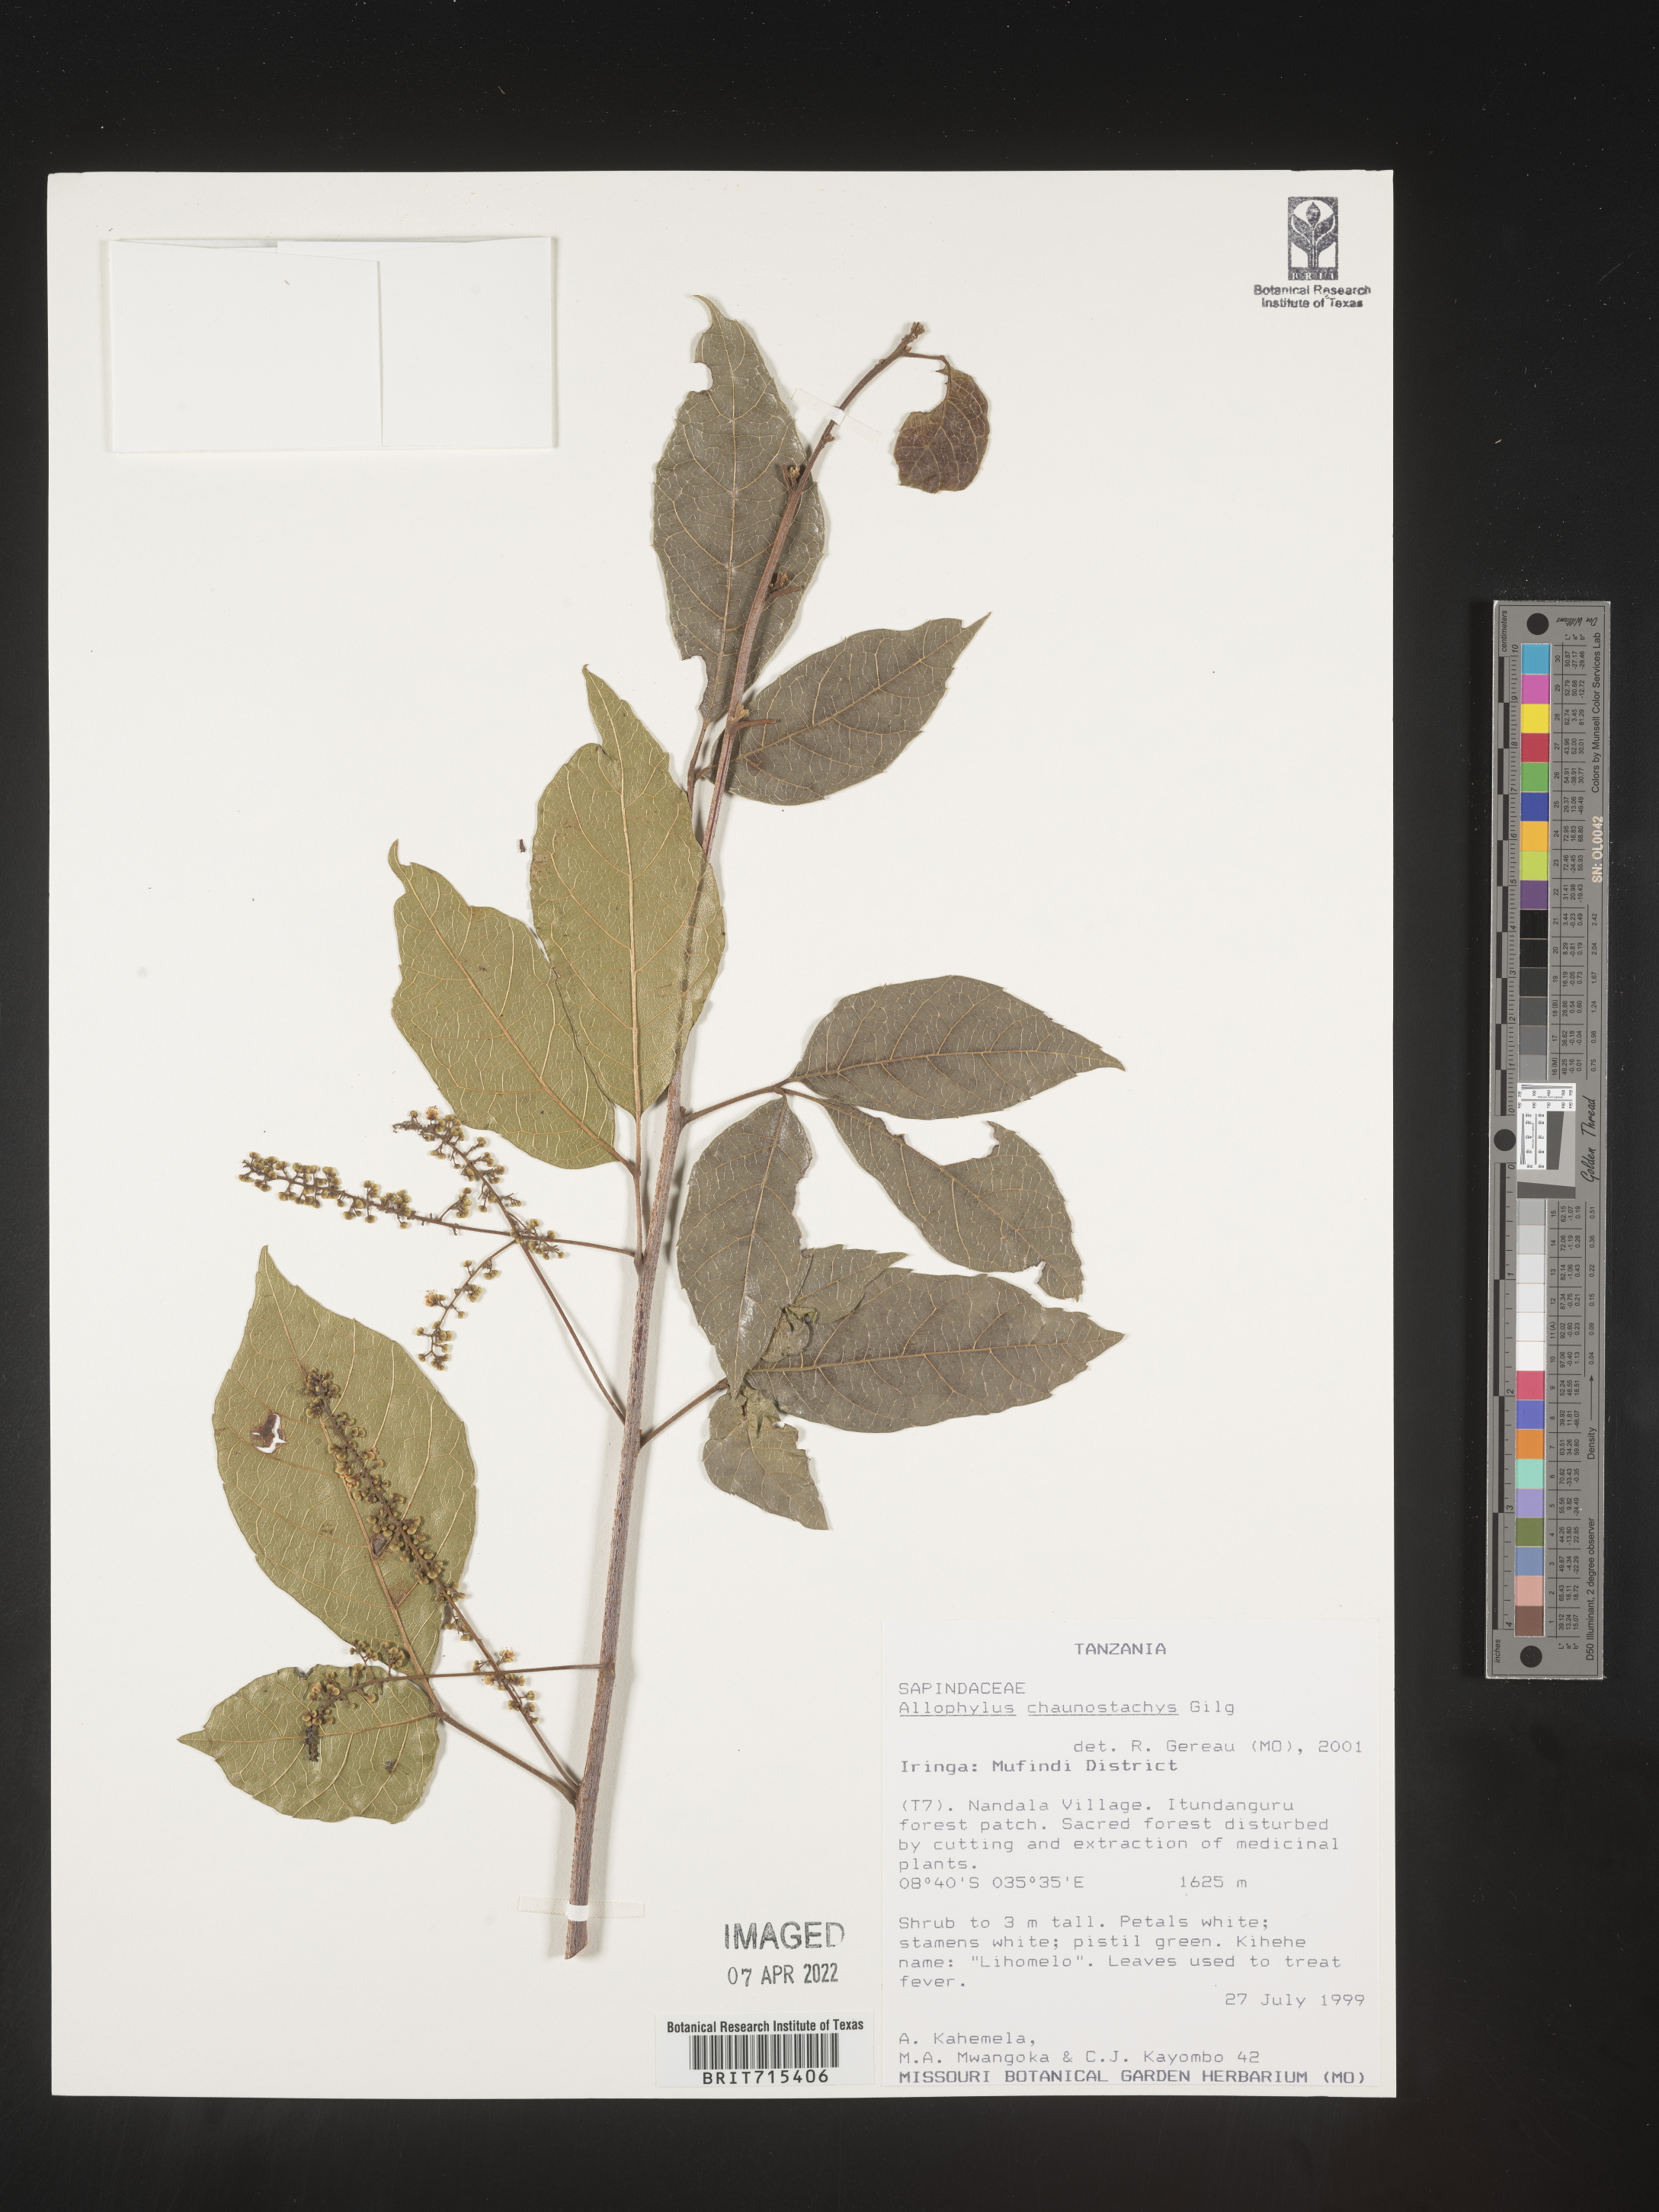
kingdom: Plantae
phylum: Tracheophyta
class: Magnoliopsida
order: Sapindales
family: Sapindaceae
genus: Allophylus
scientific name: Allophylus
